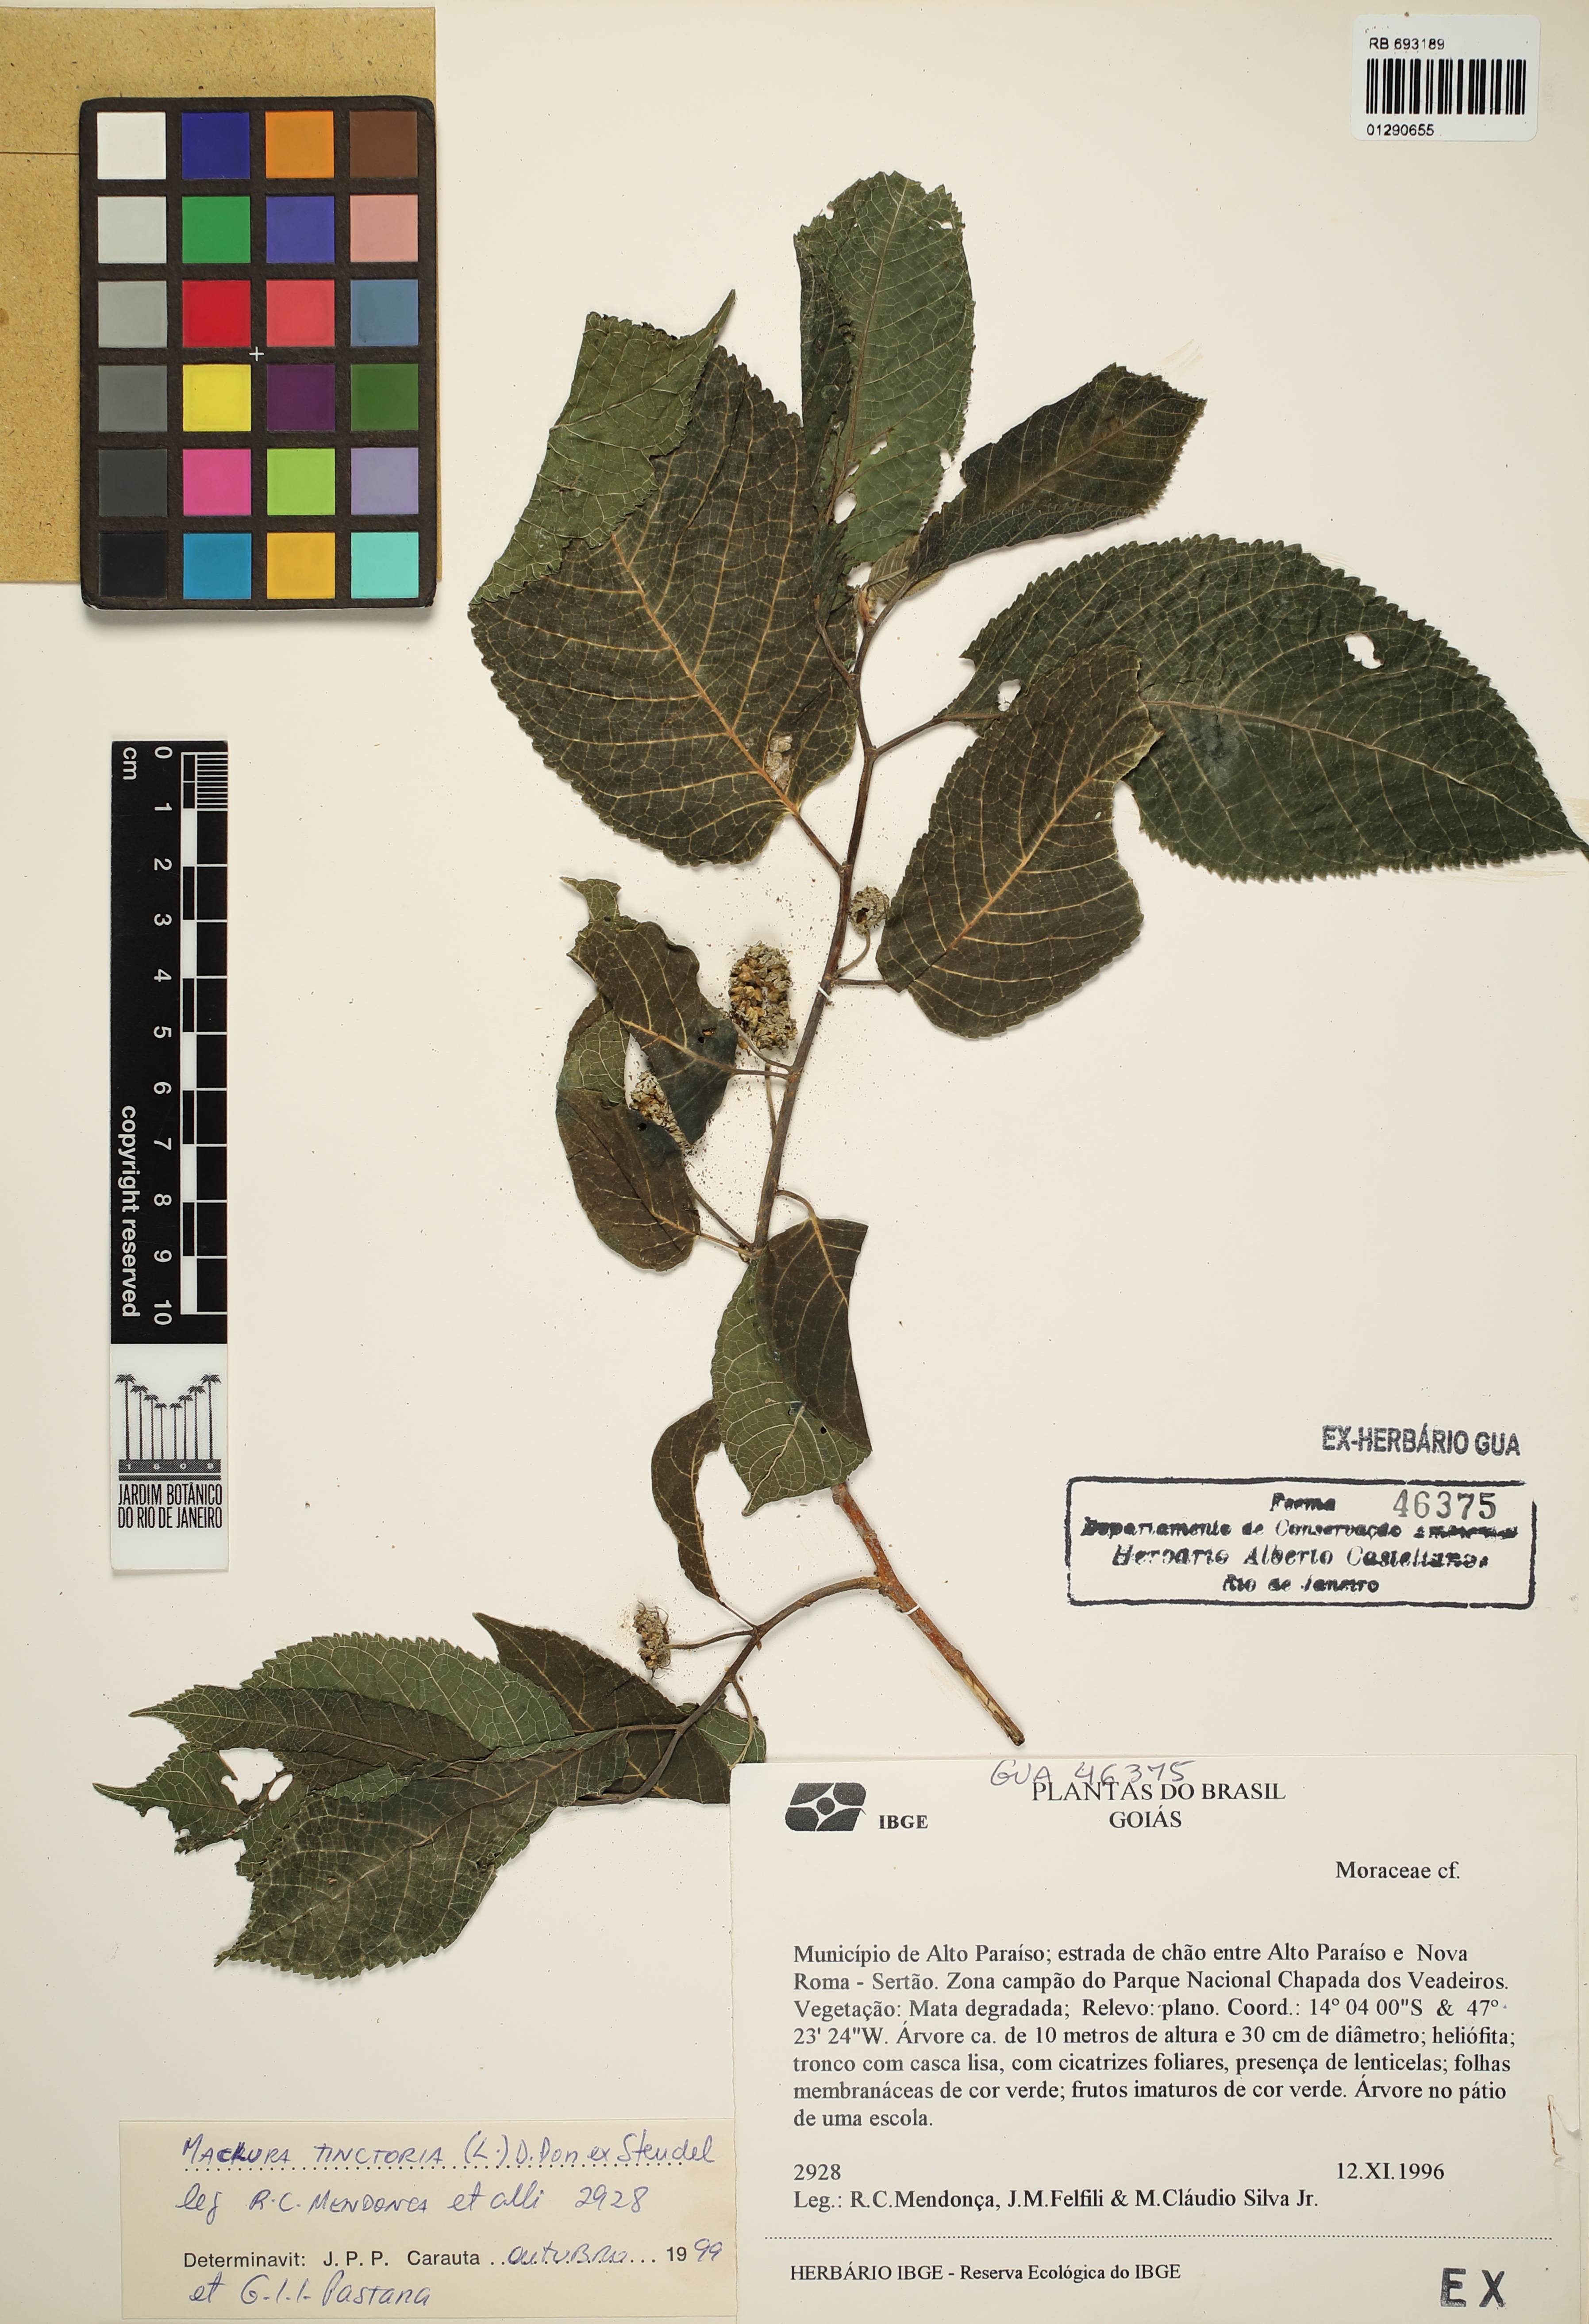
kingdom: Plantae
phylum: Tracheophyta
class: Magnoliopsida
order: Rosales
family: Moraceae
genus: Maclura
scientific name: Maclura tinctoria
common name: Old fustic
